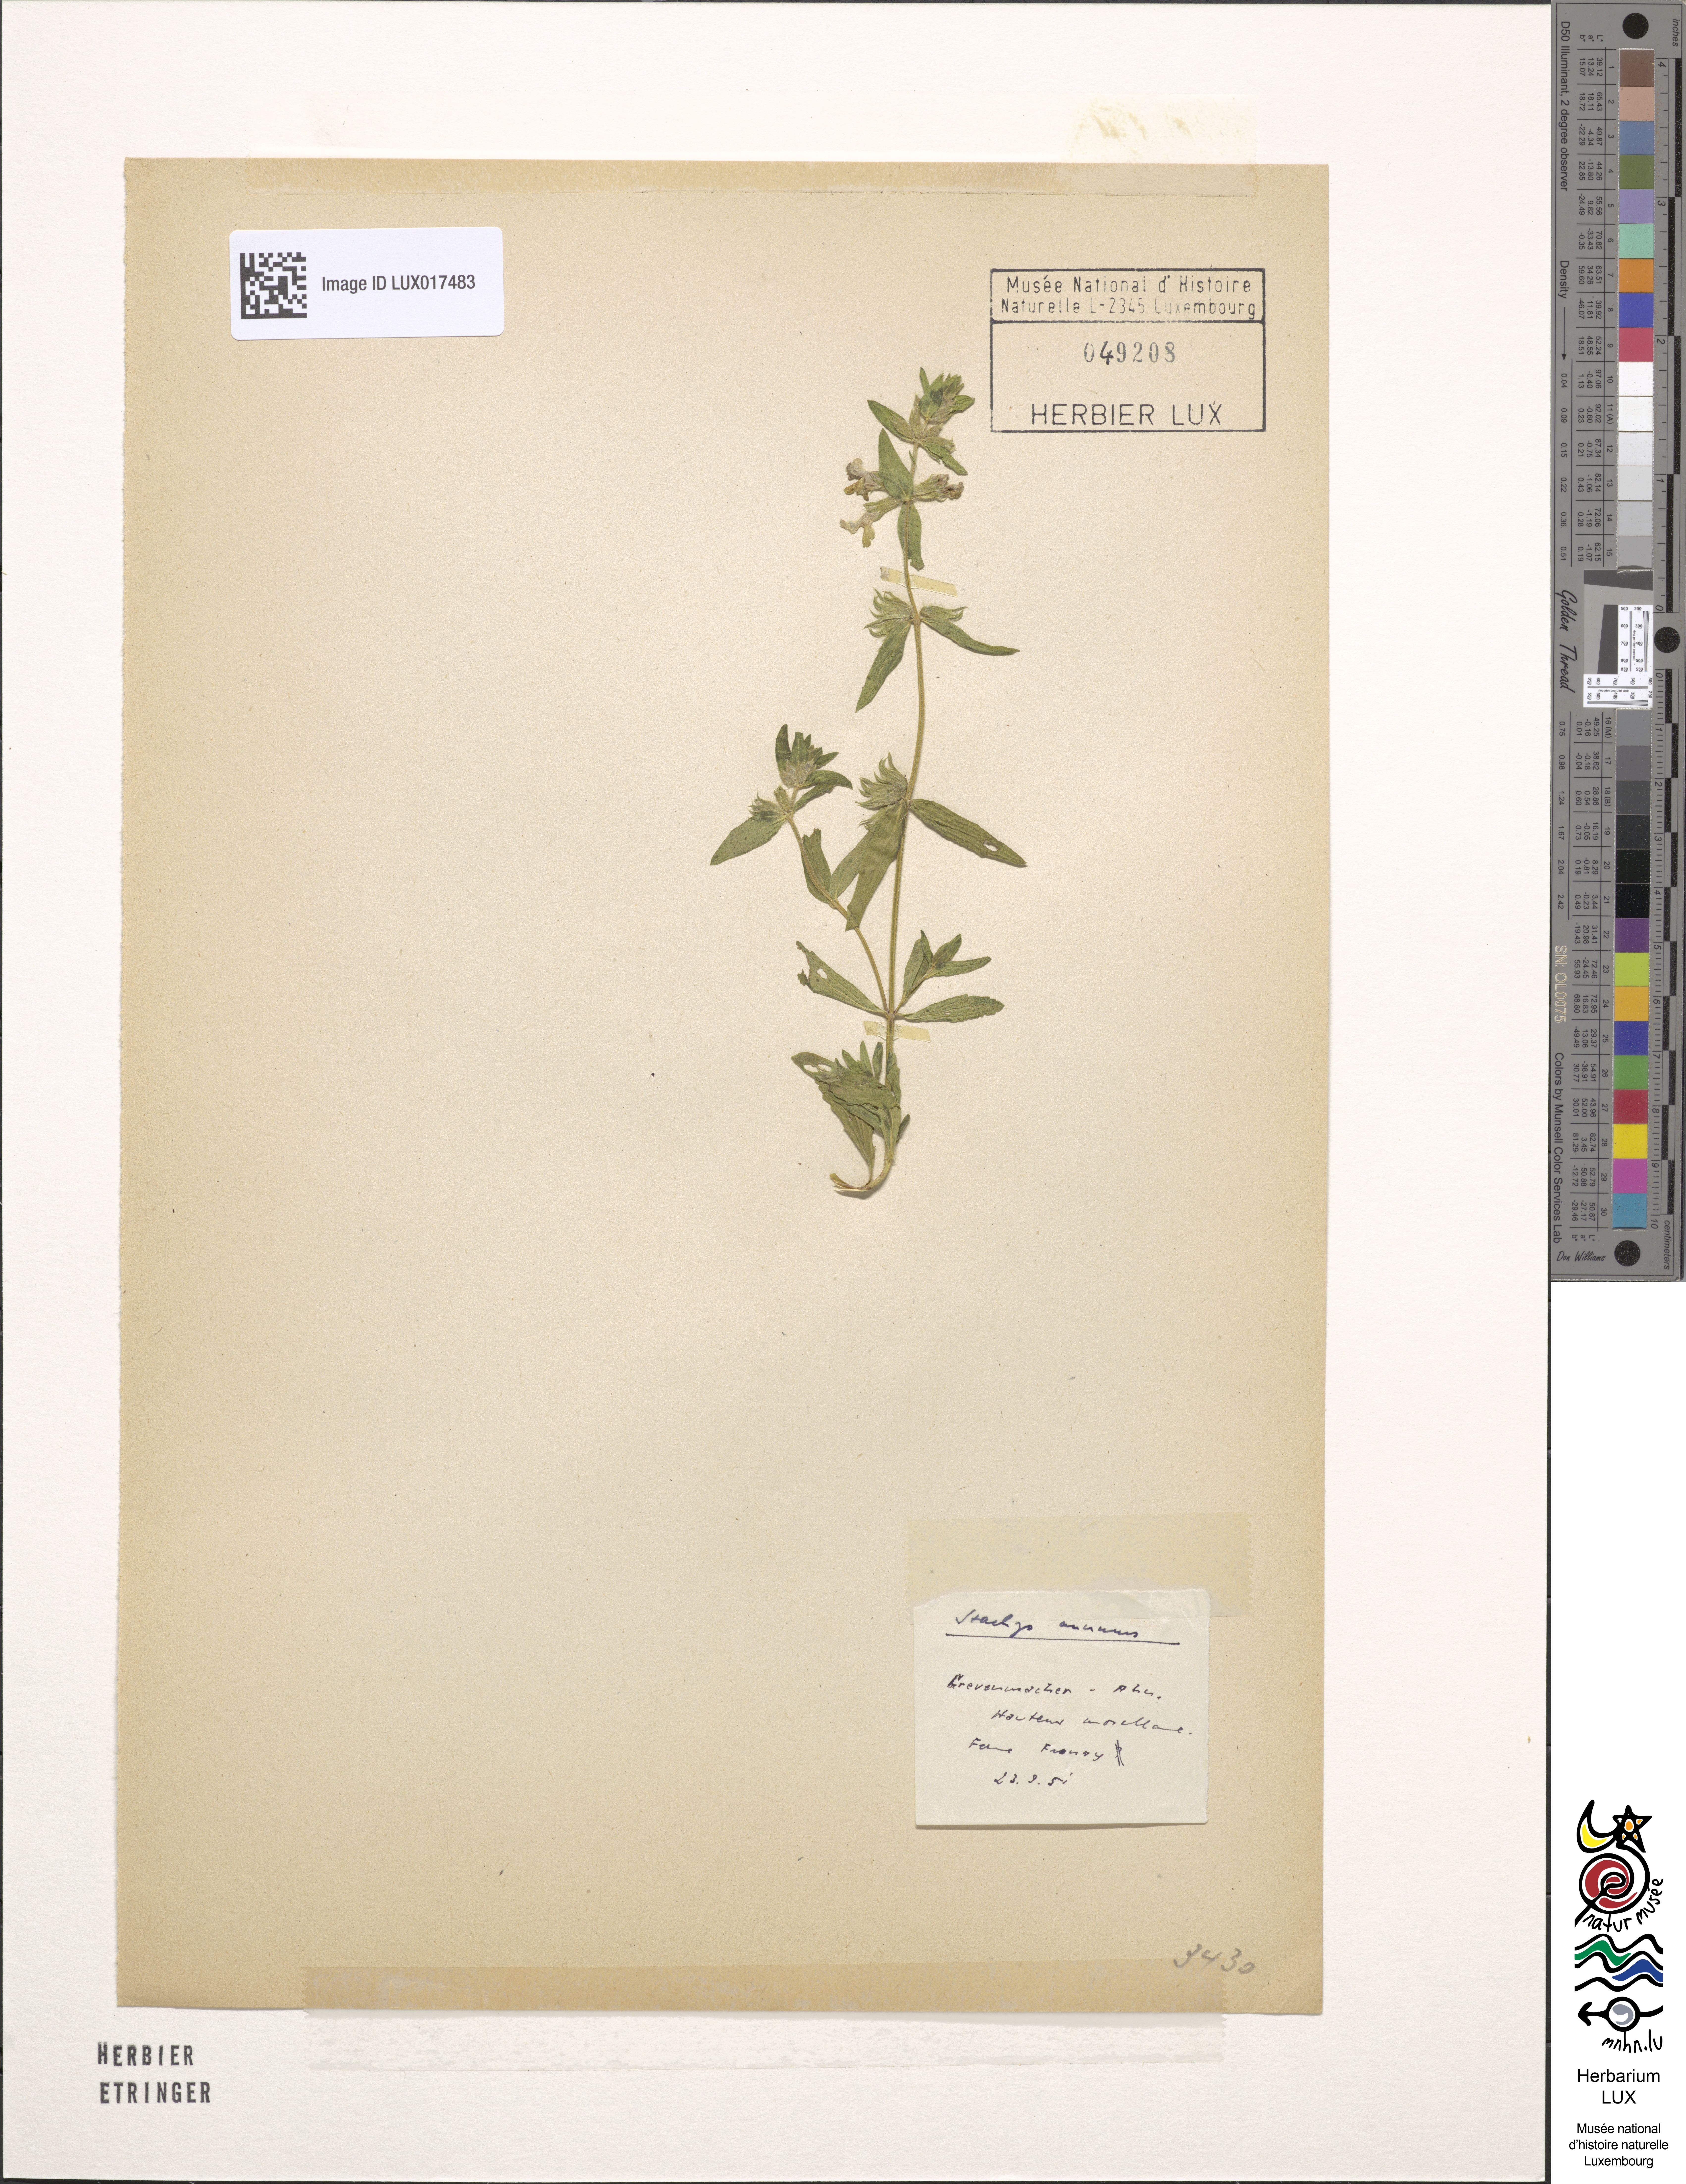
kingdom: Plantae
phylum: Tracheophyta
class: Magnoliopsida
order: Lamiales
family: Lamiaceae
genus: Stachys
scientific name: Stachys annua
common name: Annual yellow-woundwort
